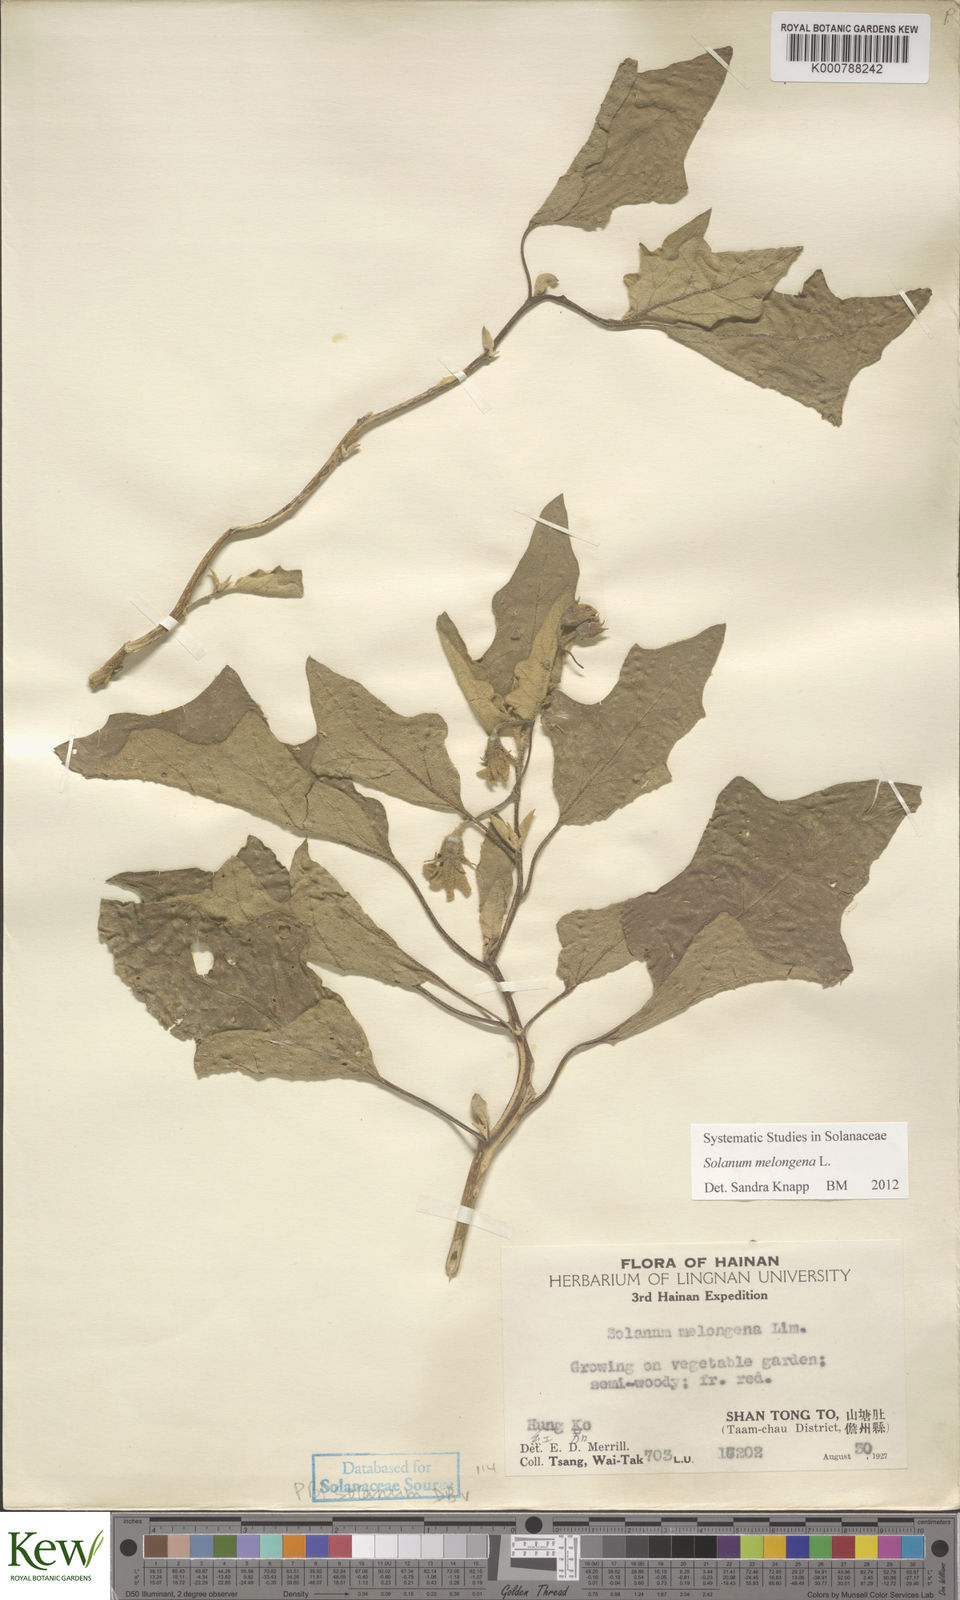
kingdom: Plantae
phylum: Tracheophyta
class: Magnoliopsida
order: Solanales
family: Solanaceae
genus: Solanum
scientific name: Solanum melongena
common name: Eggplant
